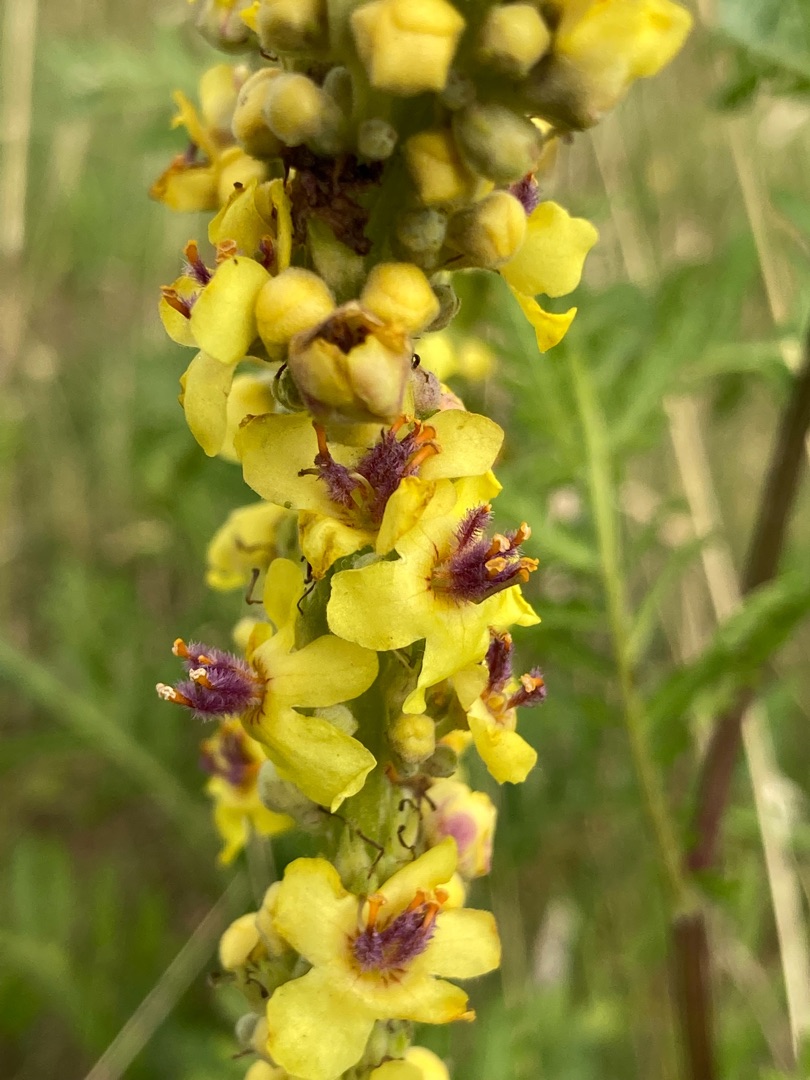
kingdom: Plantae
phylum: Tracheophyta
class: Magnoliopsida
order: Lamiales
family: Scrophulariaceae
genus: Verbascum
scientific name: Verbascum nigrum
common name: Mørk kongelys
